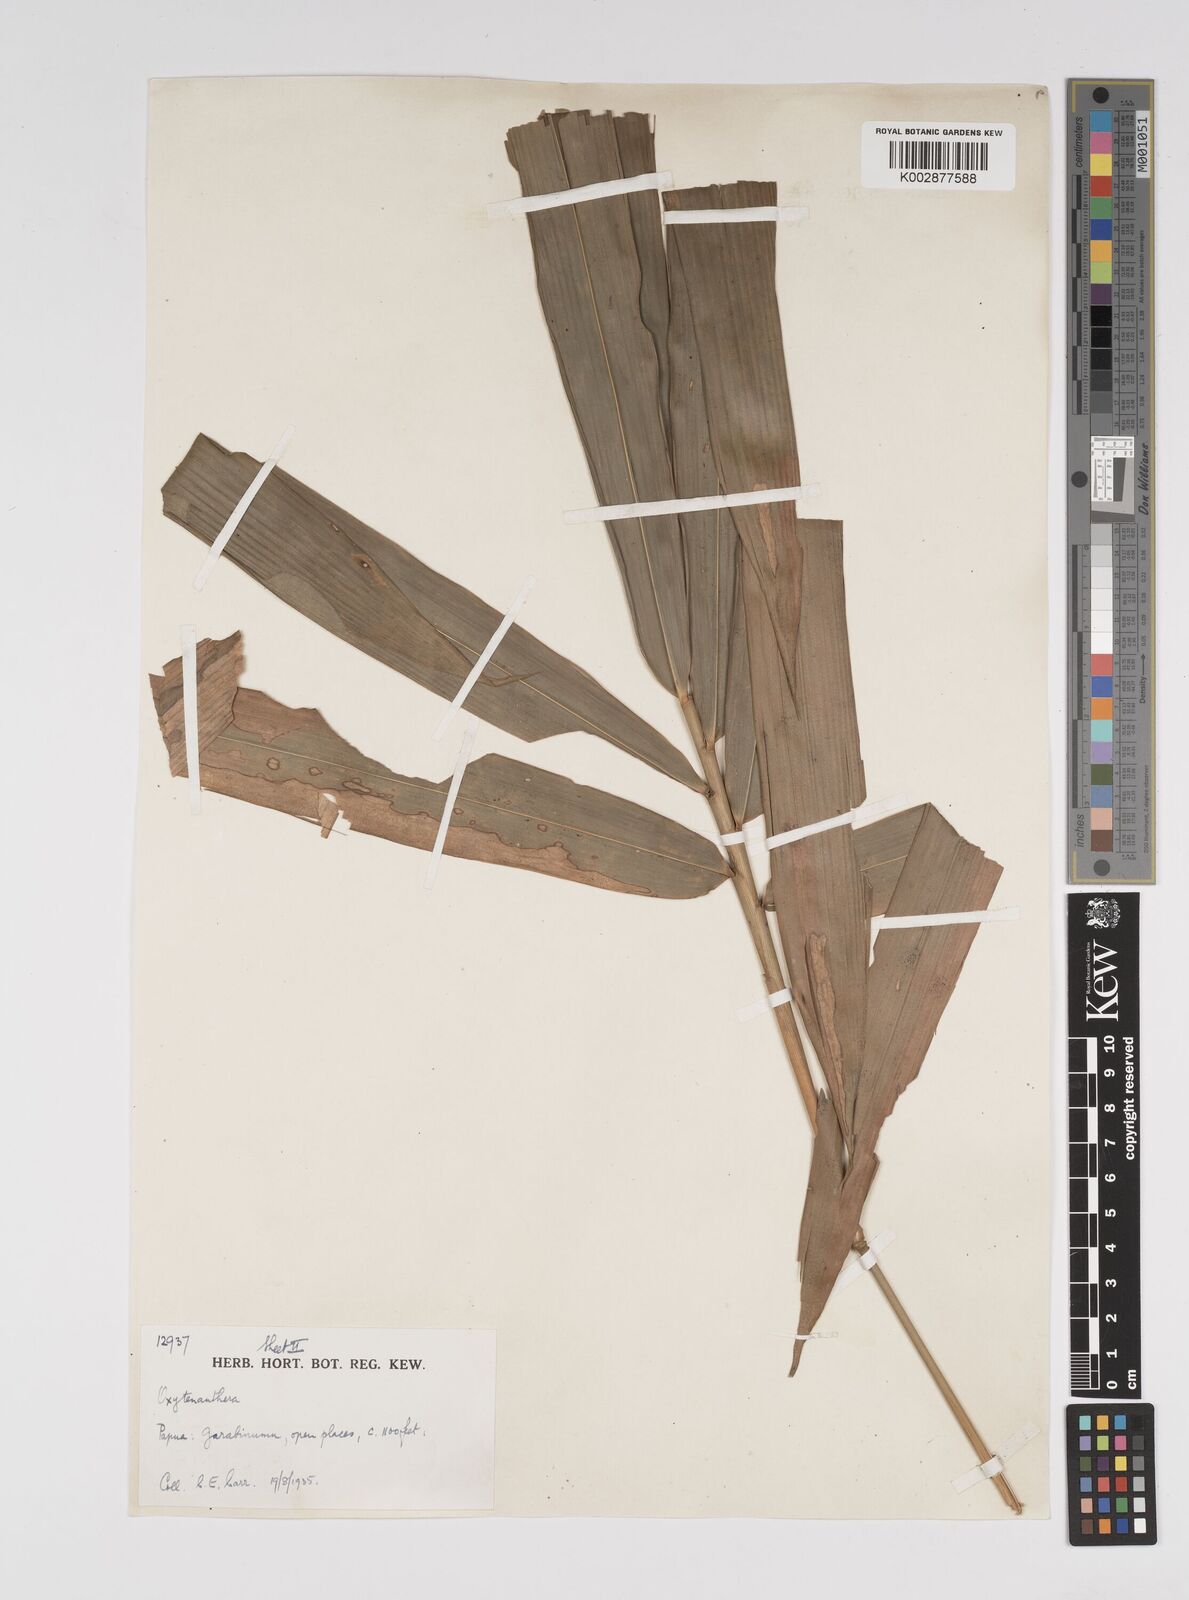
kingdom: Plantae
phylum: Tracheophyta
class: Liliopsida
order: Poales
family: Poaceae
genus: Bambusa
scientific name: Bambusa fruticosa
